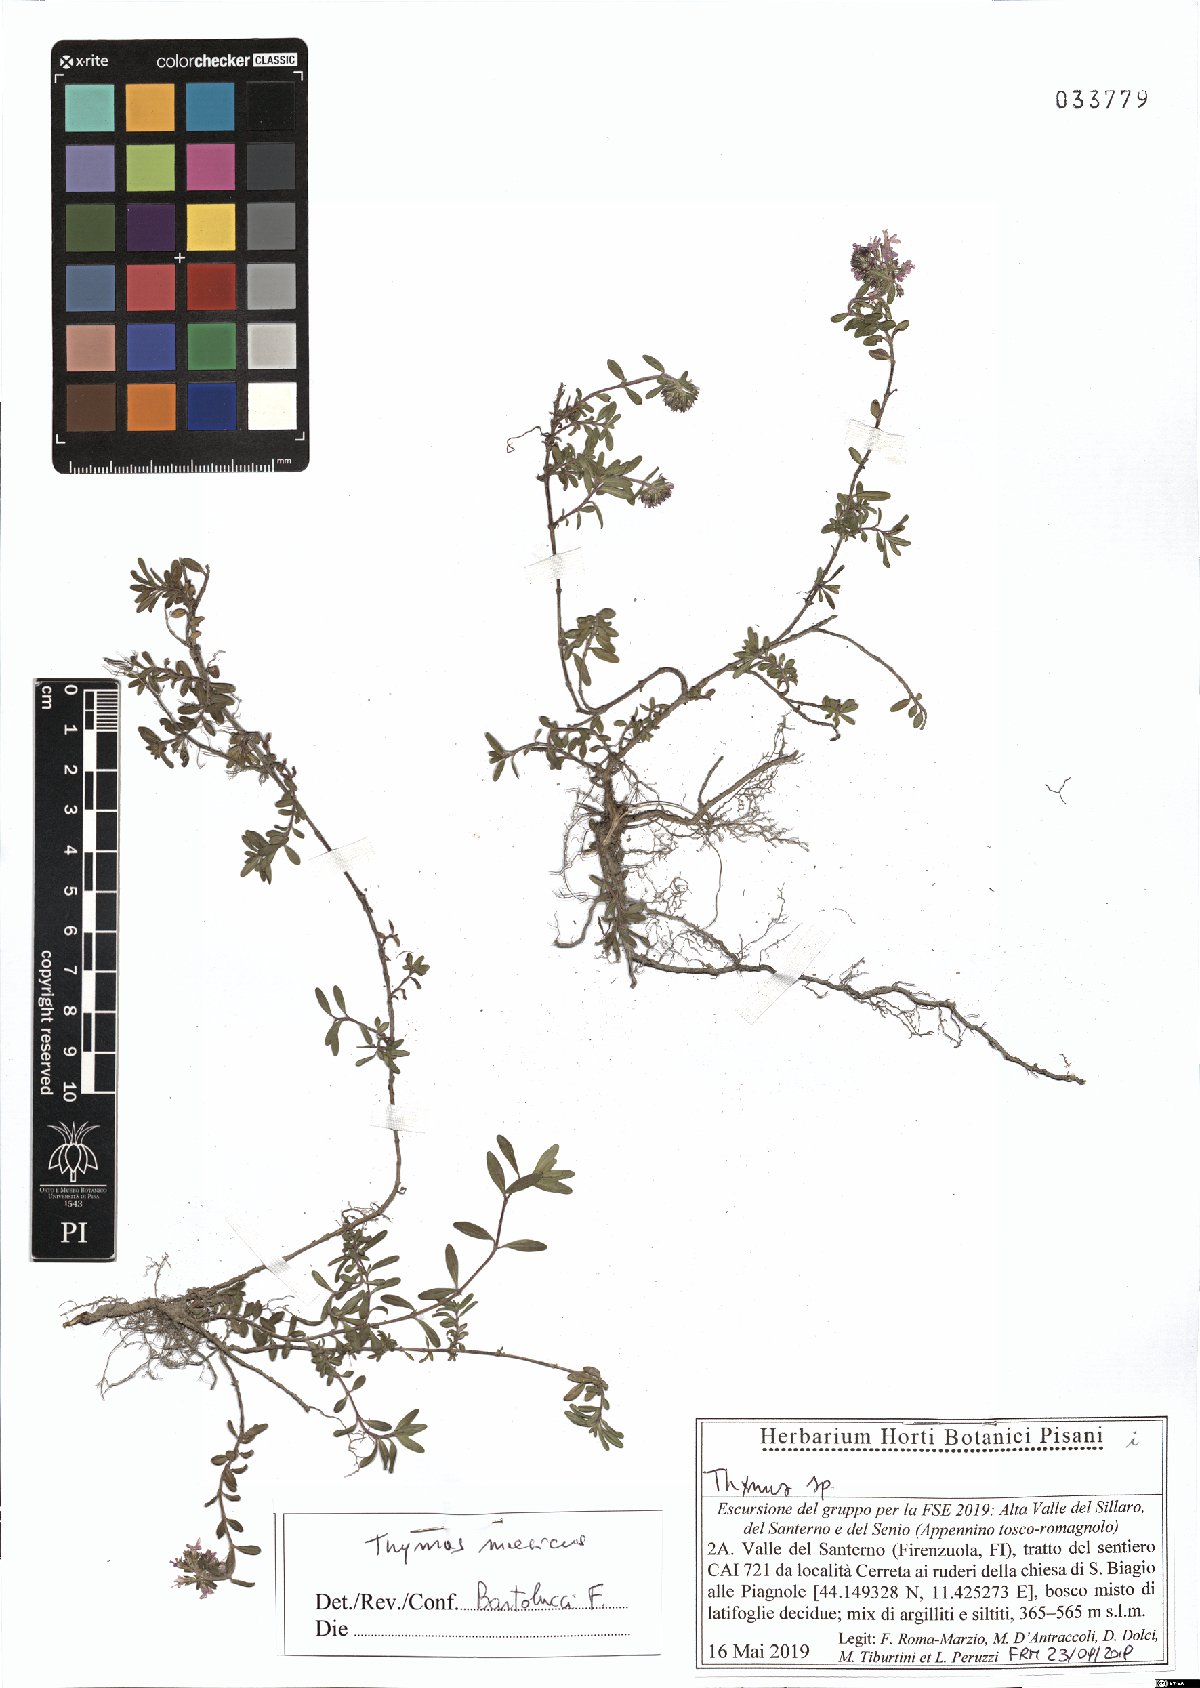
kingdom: Plantae
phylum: Tracheophyta
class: Magnoliopsida
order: Lamiales
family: Lamiaceae
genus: Thymus
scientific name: Thymus longicaulis
